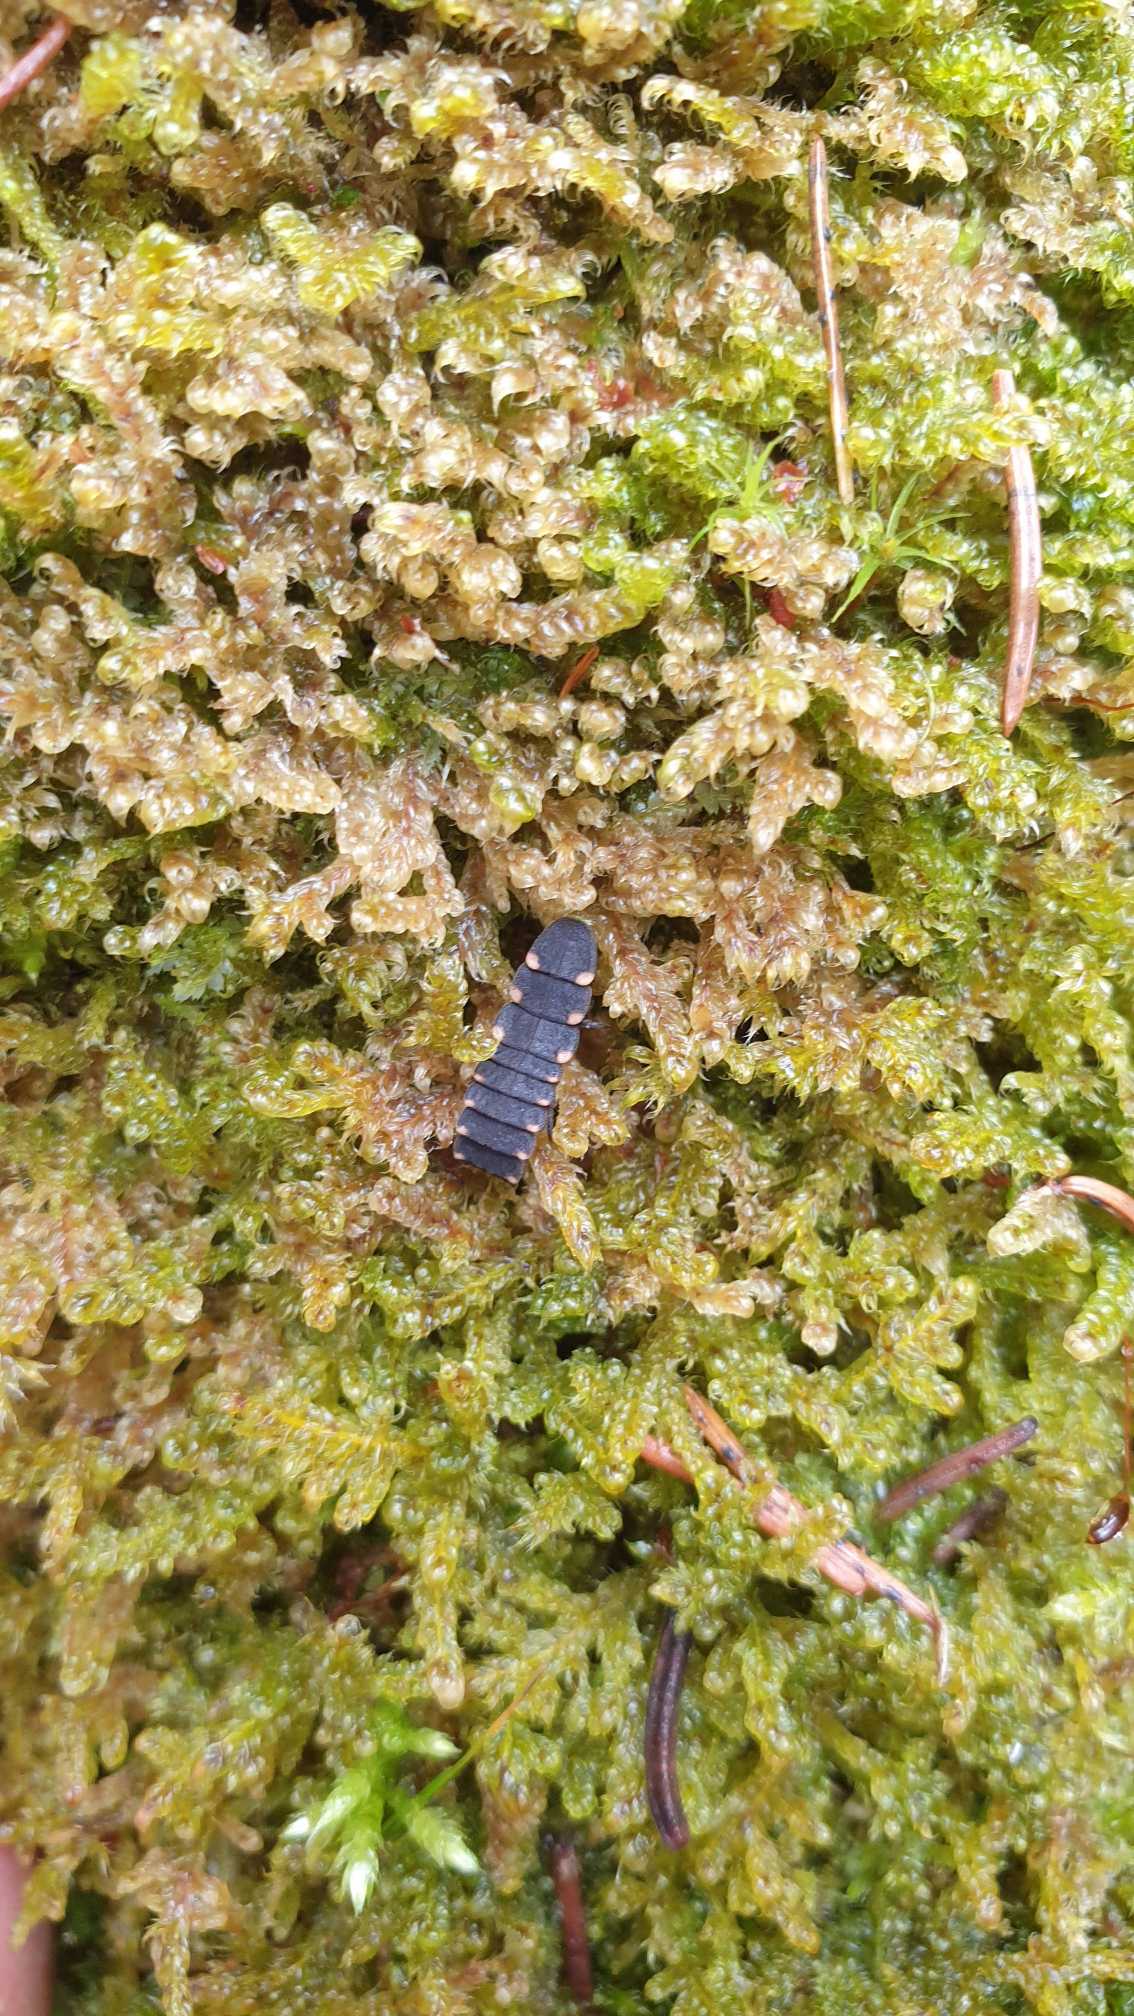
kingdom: Animalia
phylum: Arthropoda
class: Insecta
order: Coleoptera
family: Lampyridae
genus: Lampyris
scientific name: Lampyris noctiluca
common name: Sankthansorm
